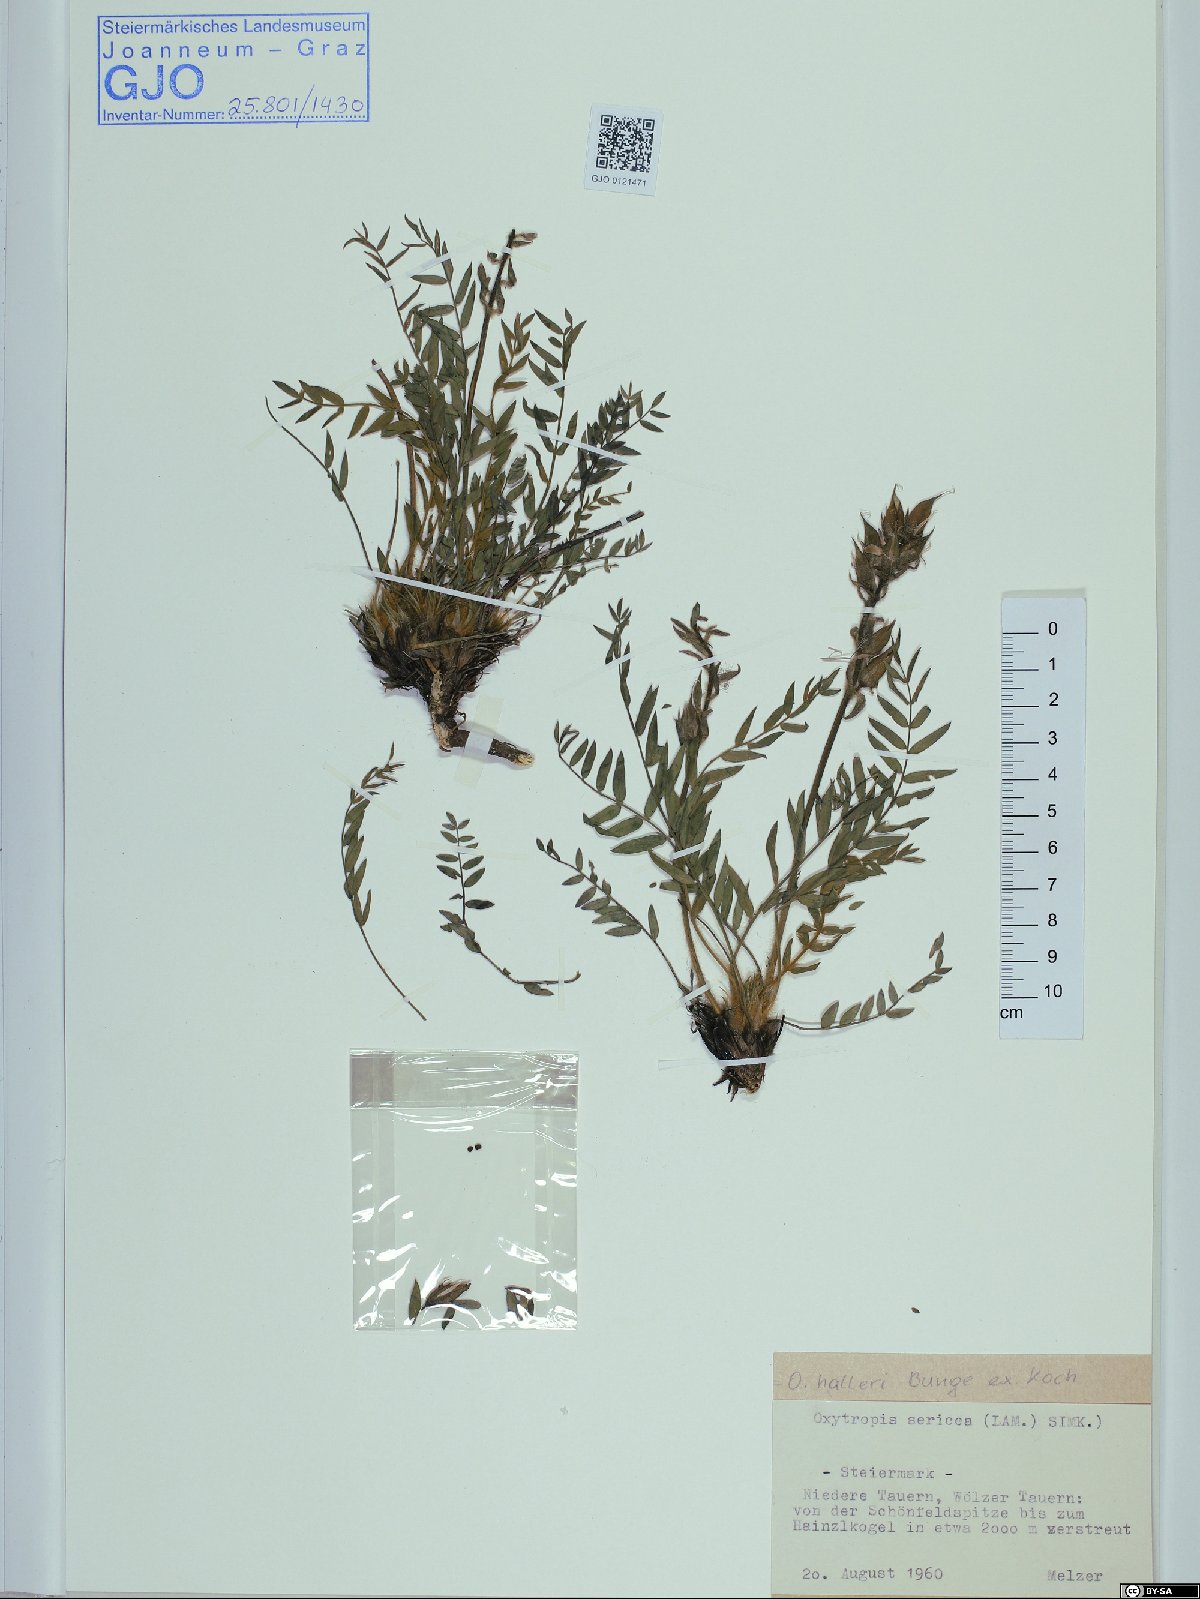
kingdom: Plantae
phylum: Tracheophyta
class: Magnoliopsida
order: Fabales
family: Fabaceae
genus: Oxytropis
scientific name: Oxytropis halleri
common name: Purple oxytropis
